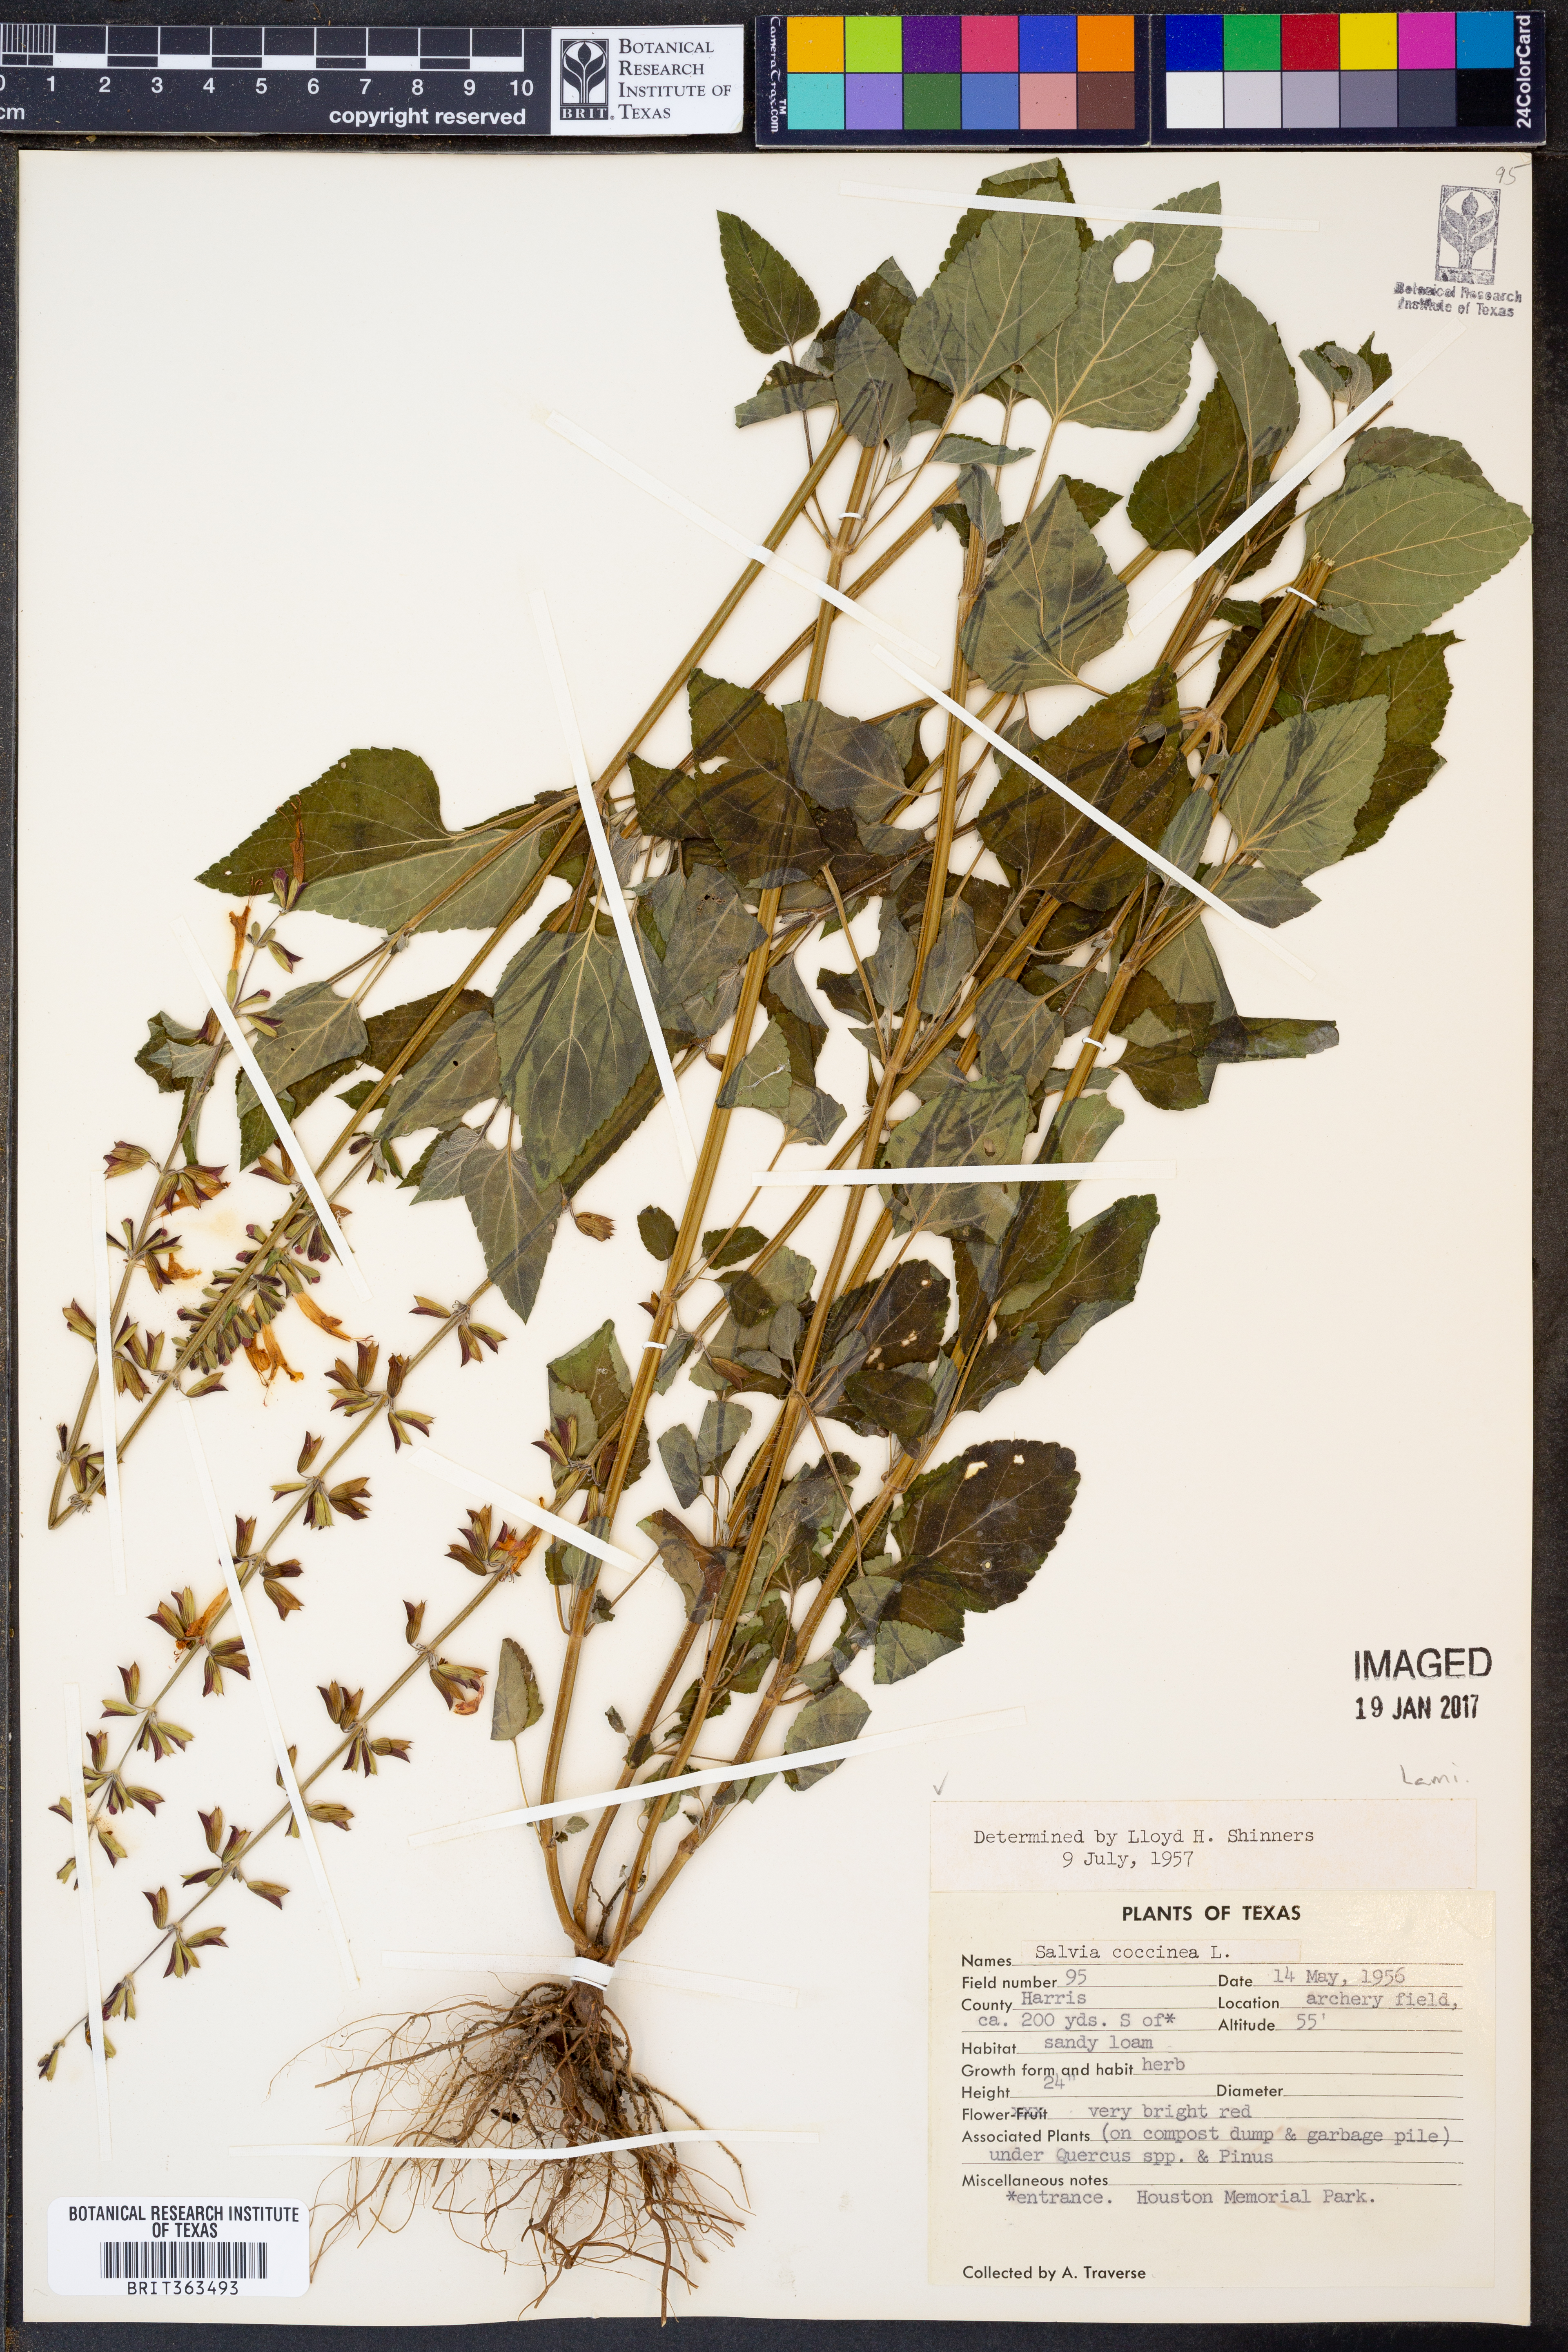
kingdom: Plantae
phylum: Tracheophyta
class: Magnoliopsida
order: Lamiales
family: Lamiaceae
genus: Salvia
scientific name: Salvia coccinea
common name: Blood sage
